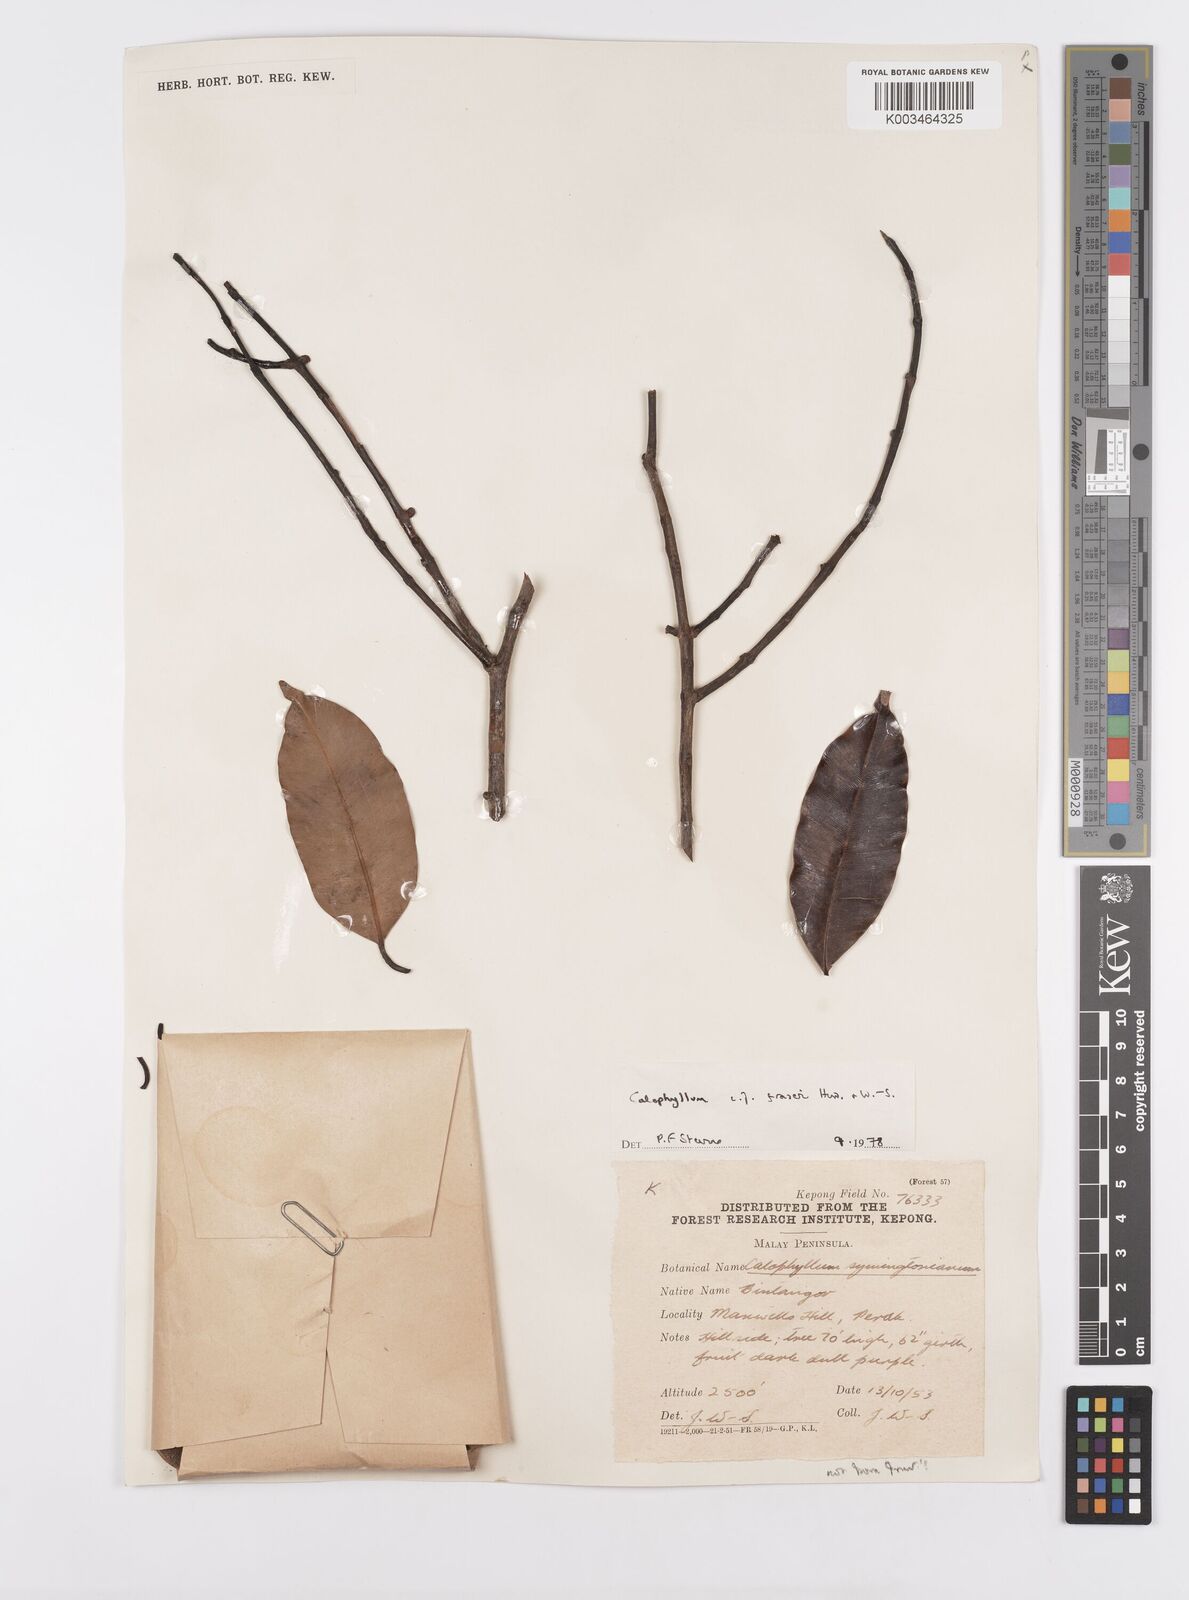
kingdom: Plantae
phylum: Tracheophyta
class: Magnoliopsida
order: Malpighiales
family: Calophyllaceae
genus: Calophyllum
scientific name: Calophyllum fraseri
